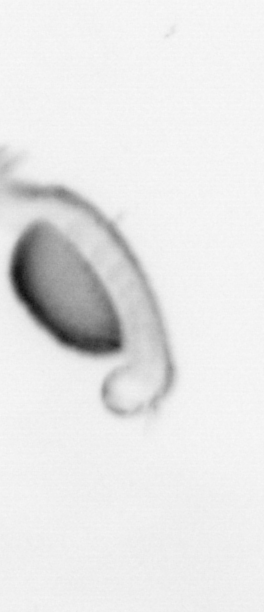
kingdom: Animalia
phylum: Annelida
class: Polychaeta
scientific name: Polychaeta
